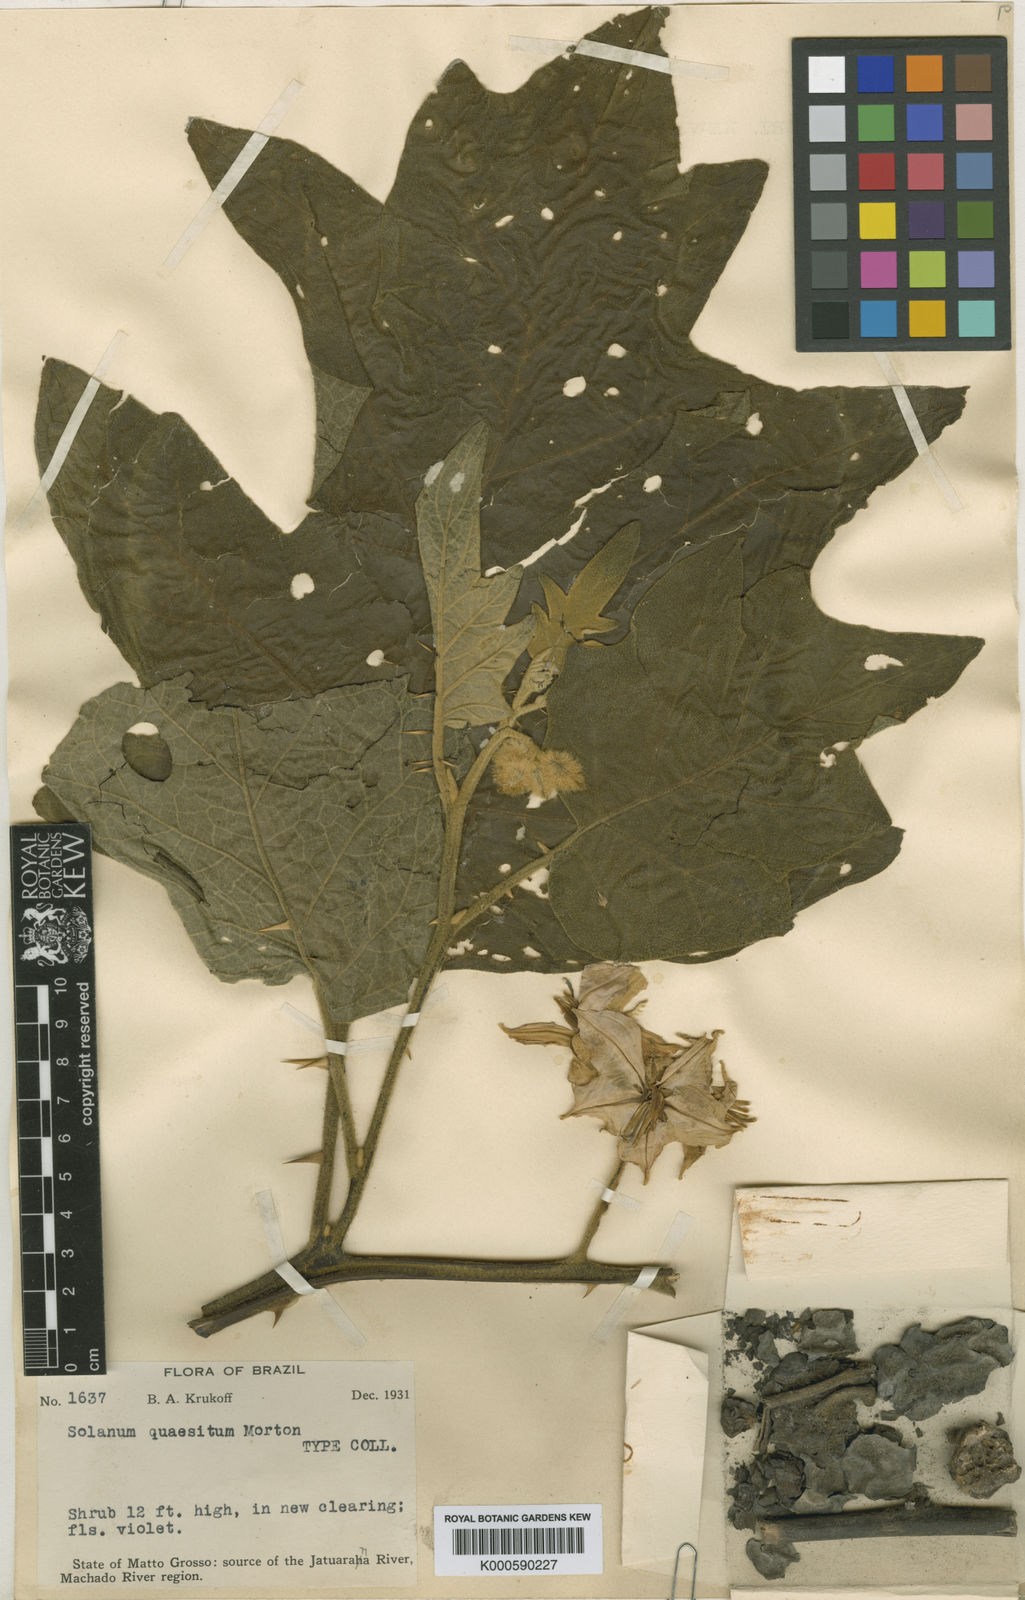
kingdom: Plantae
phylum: Tracheophyta
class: Magnoliopsida
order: Solanales
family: Solanaceae
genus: Solanum
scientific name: Solanum quaesitum
